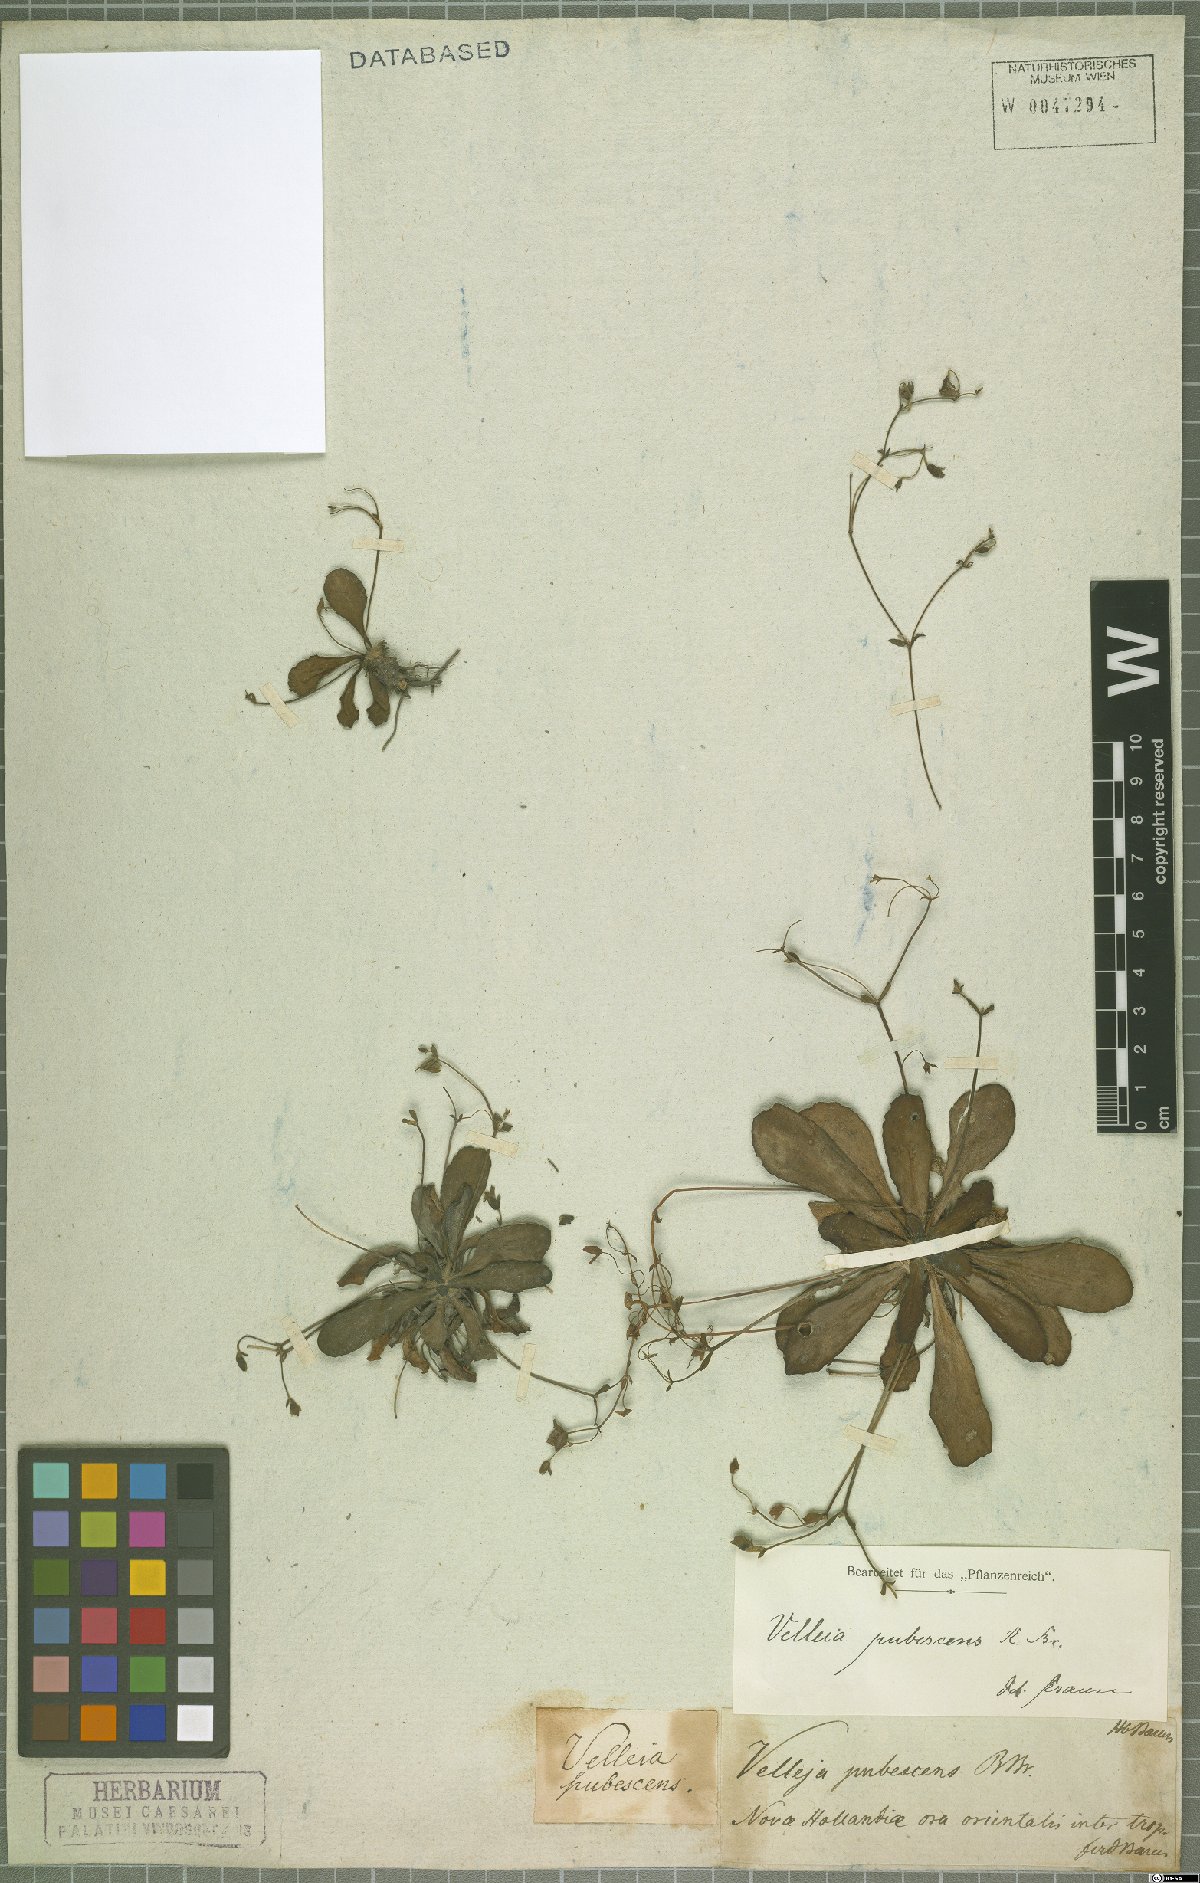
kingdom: Plantae
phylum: Tracheophyta
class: Magnoliopsida
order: Asterales
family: Goodeniaceae
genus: Goodenia
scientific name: Goodenia subsolana
